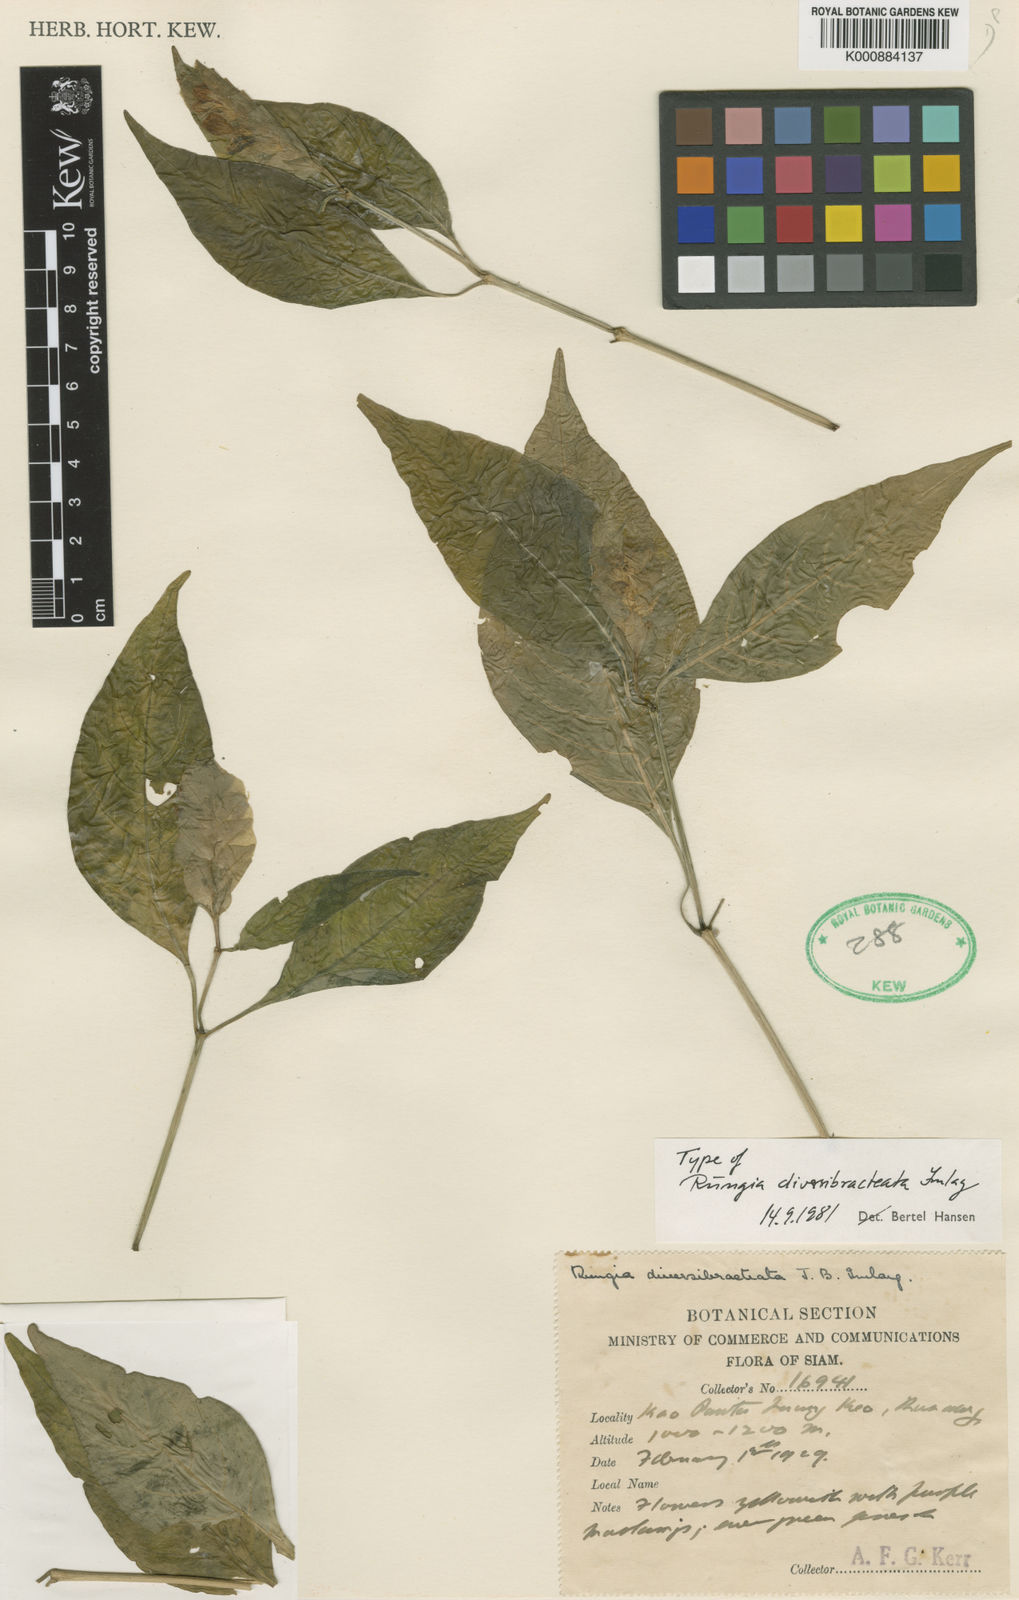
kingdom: Plantae
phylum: Tracheophyta
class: Magnoliopsida
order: Lamiales
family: Acanthaceae
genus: Justicia
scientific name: Justicia
